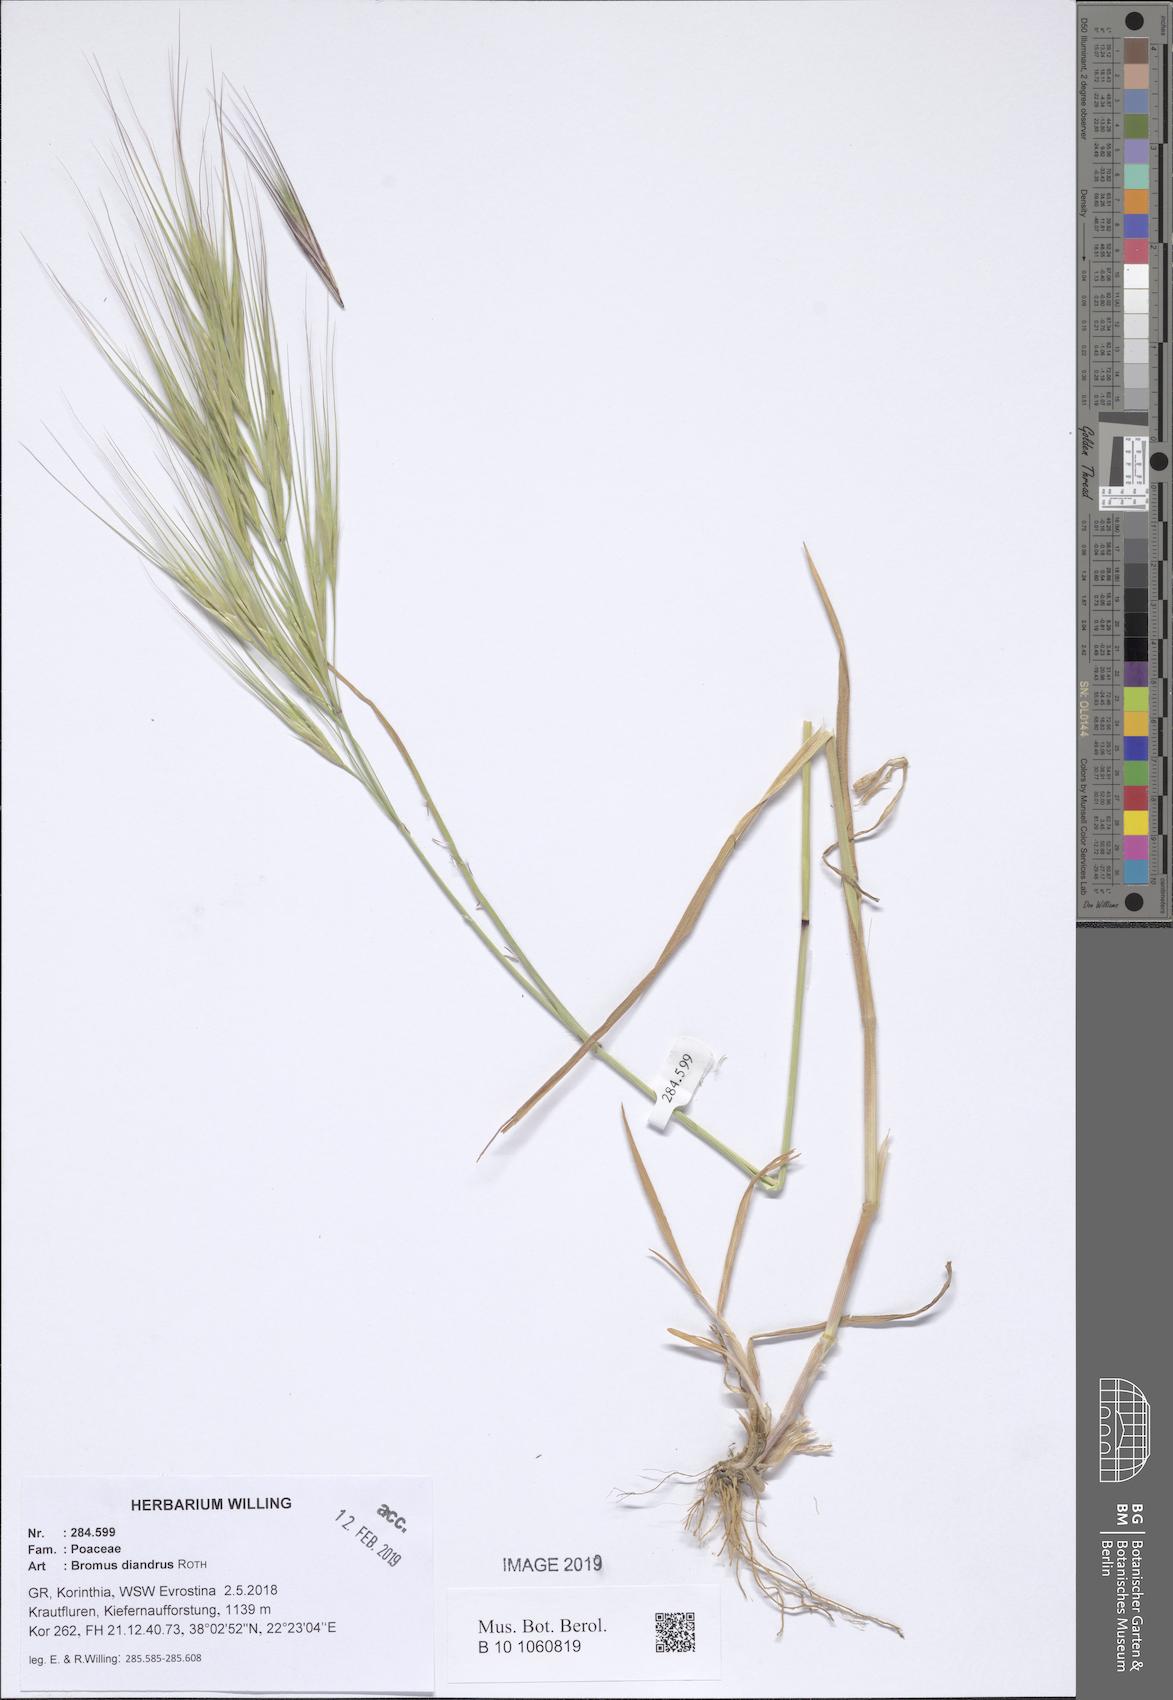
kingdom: Plantae
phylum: Tracheophyta
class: Liliopsida
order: Poales
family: Poaceae
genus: Bromus
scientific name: Bromus diandrus
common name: Ripgut brome
